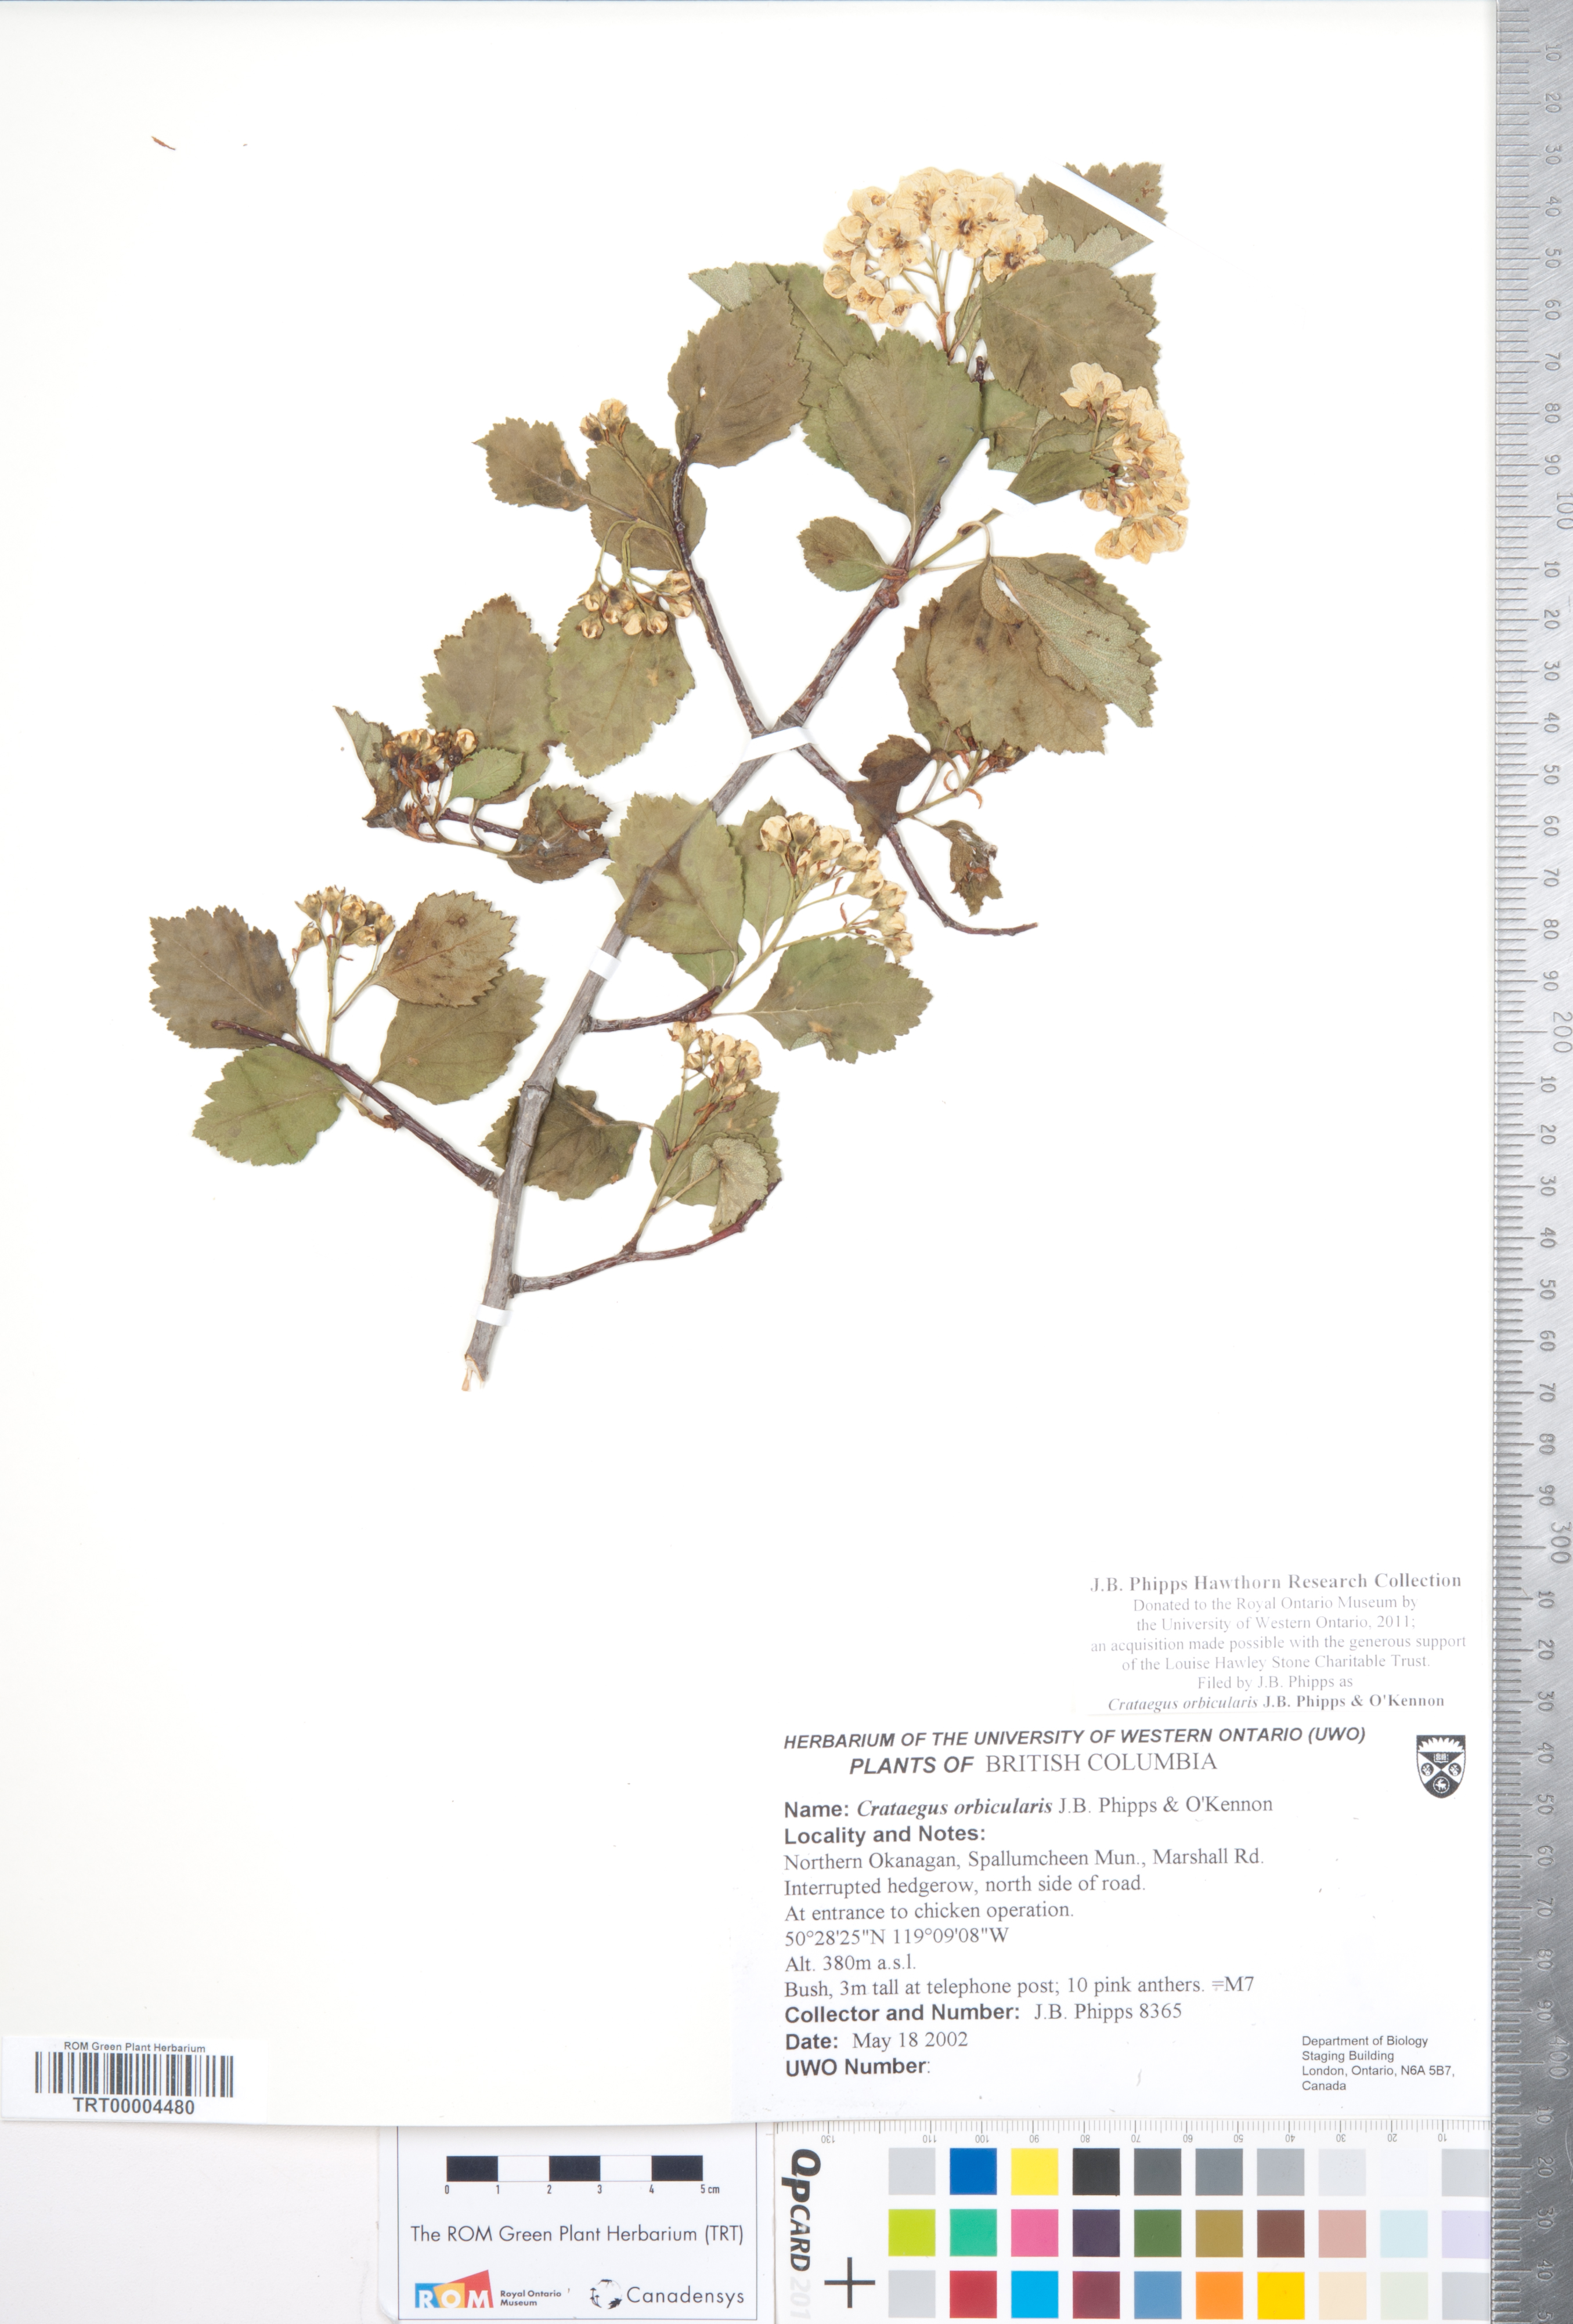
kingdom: Plantae
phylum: Tracheophyta
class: Magnoliopsida
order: Rosales
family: Rosaceae
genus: Crataegus
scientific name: Crataegus orbicularis
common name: Orbicular-leaved hawthorn
